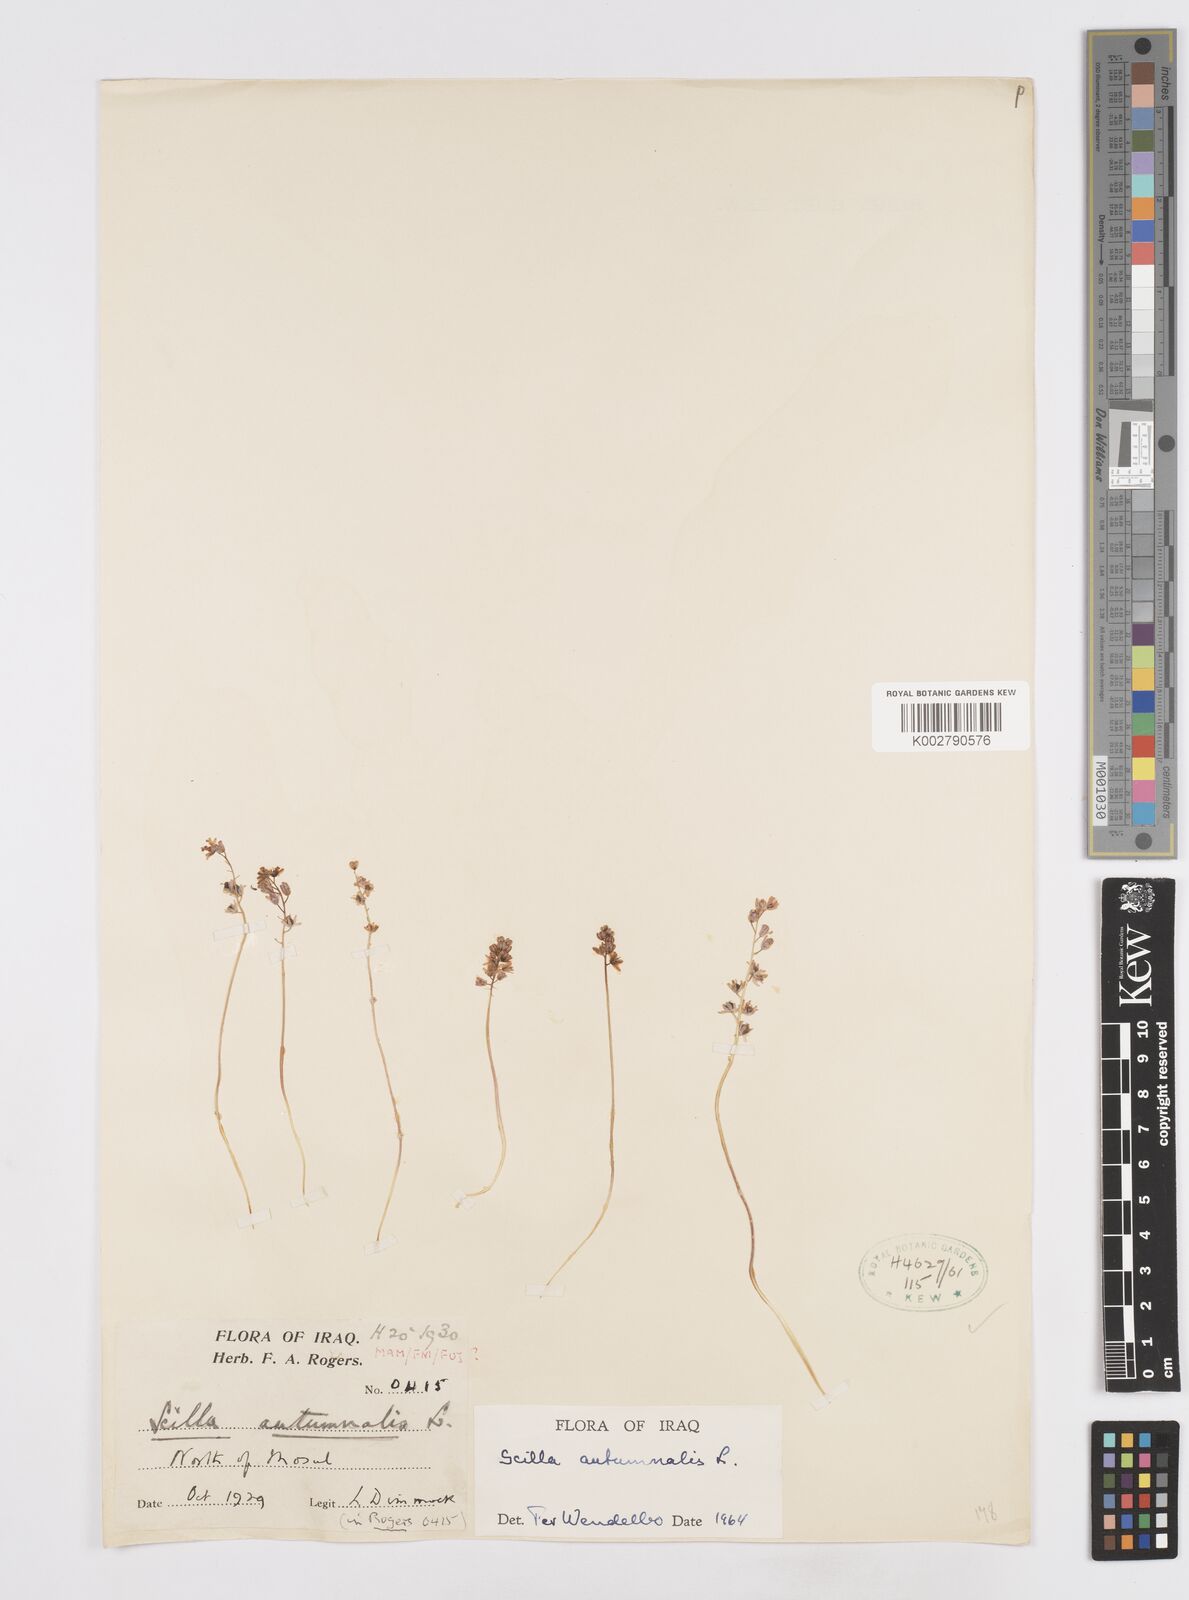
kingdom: Plantae
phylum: Tracheophyta
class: Liliopsida
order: Asparagales
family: Asparagaceae
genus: Prospero
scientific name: Prospero autumnale
